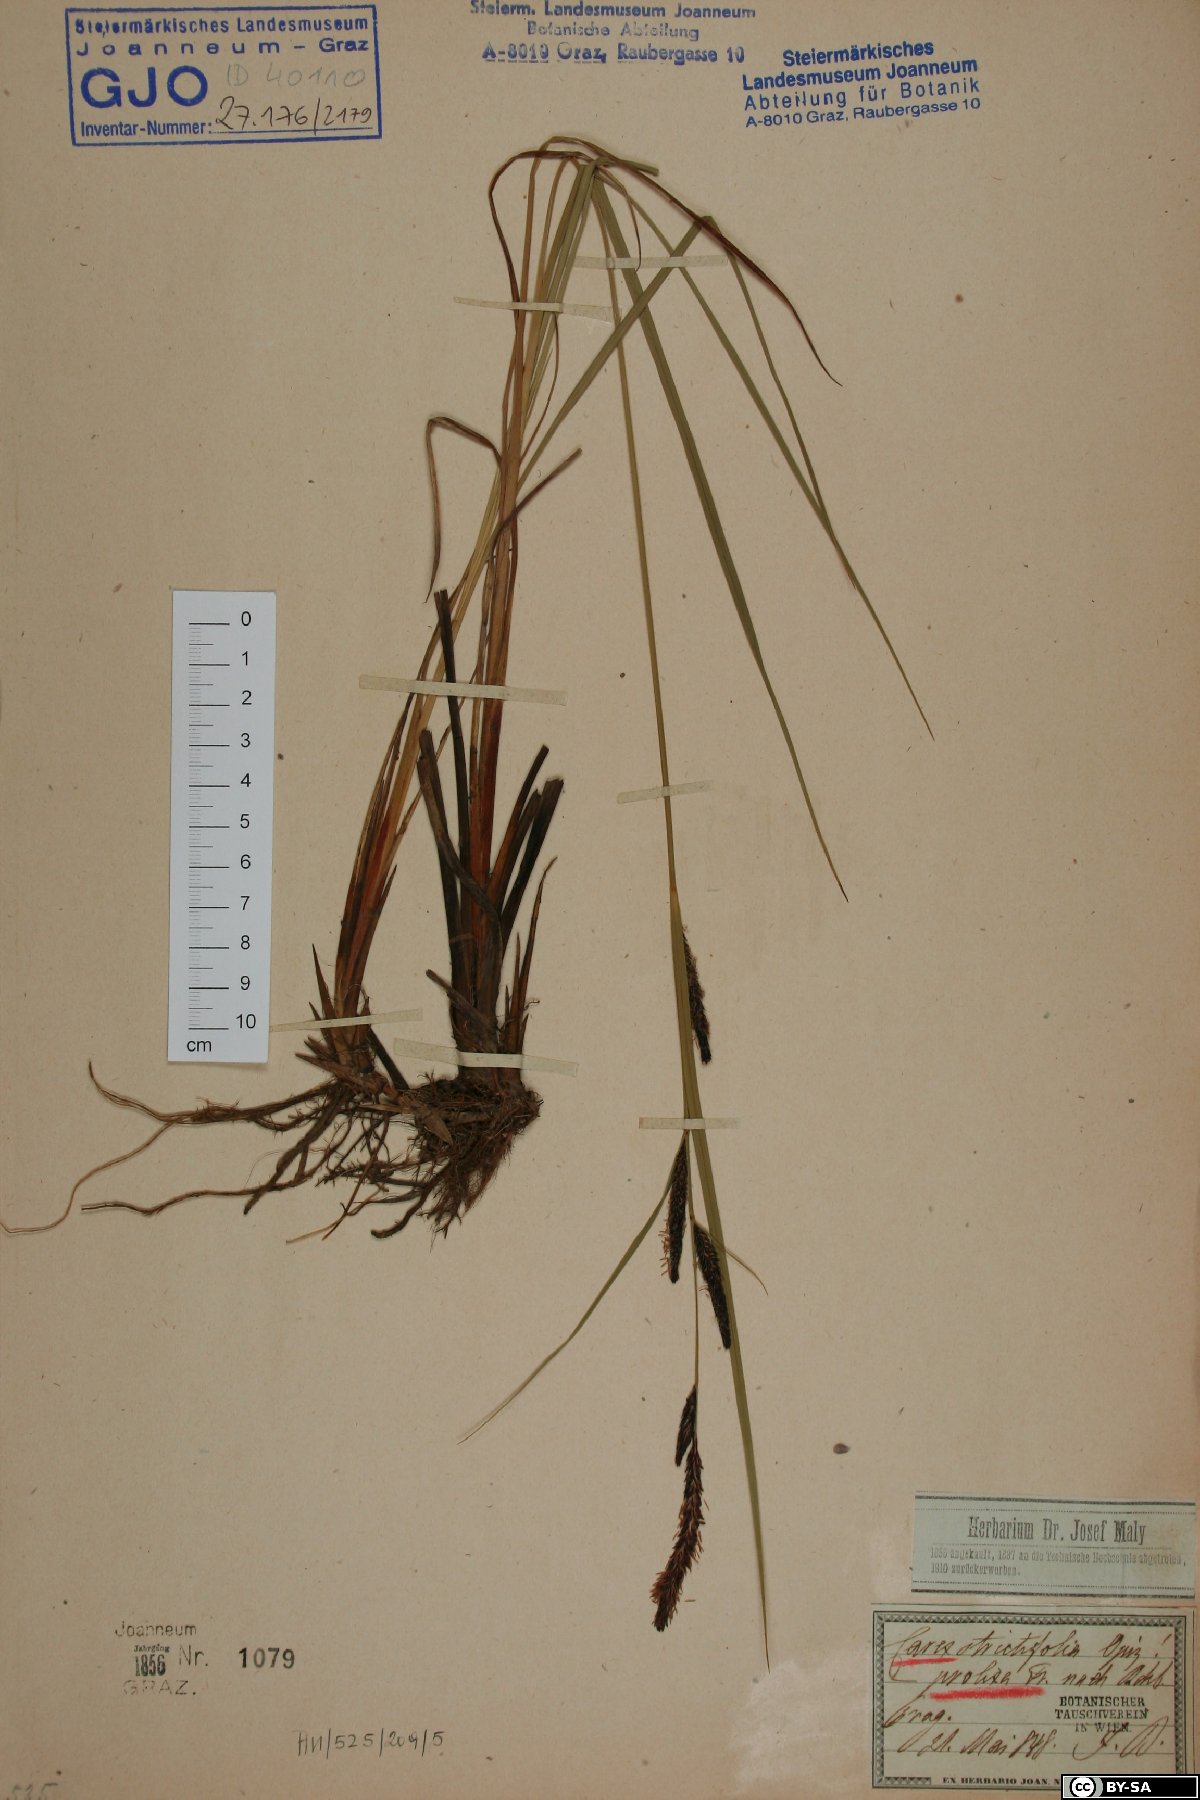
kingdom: Plantae
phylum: Tracheophyta
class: Liliopsida
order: Poales
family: Cyperaceae
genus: Carex
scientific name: Carex strictifolia
